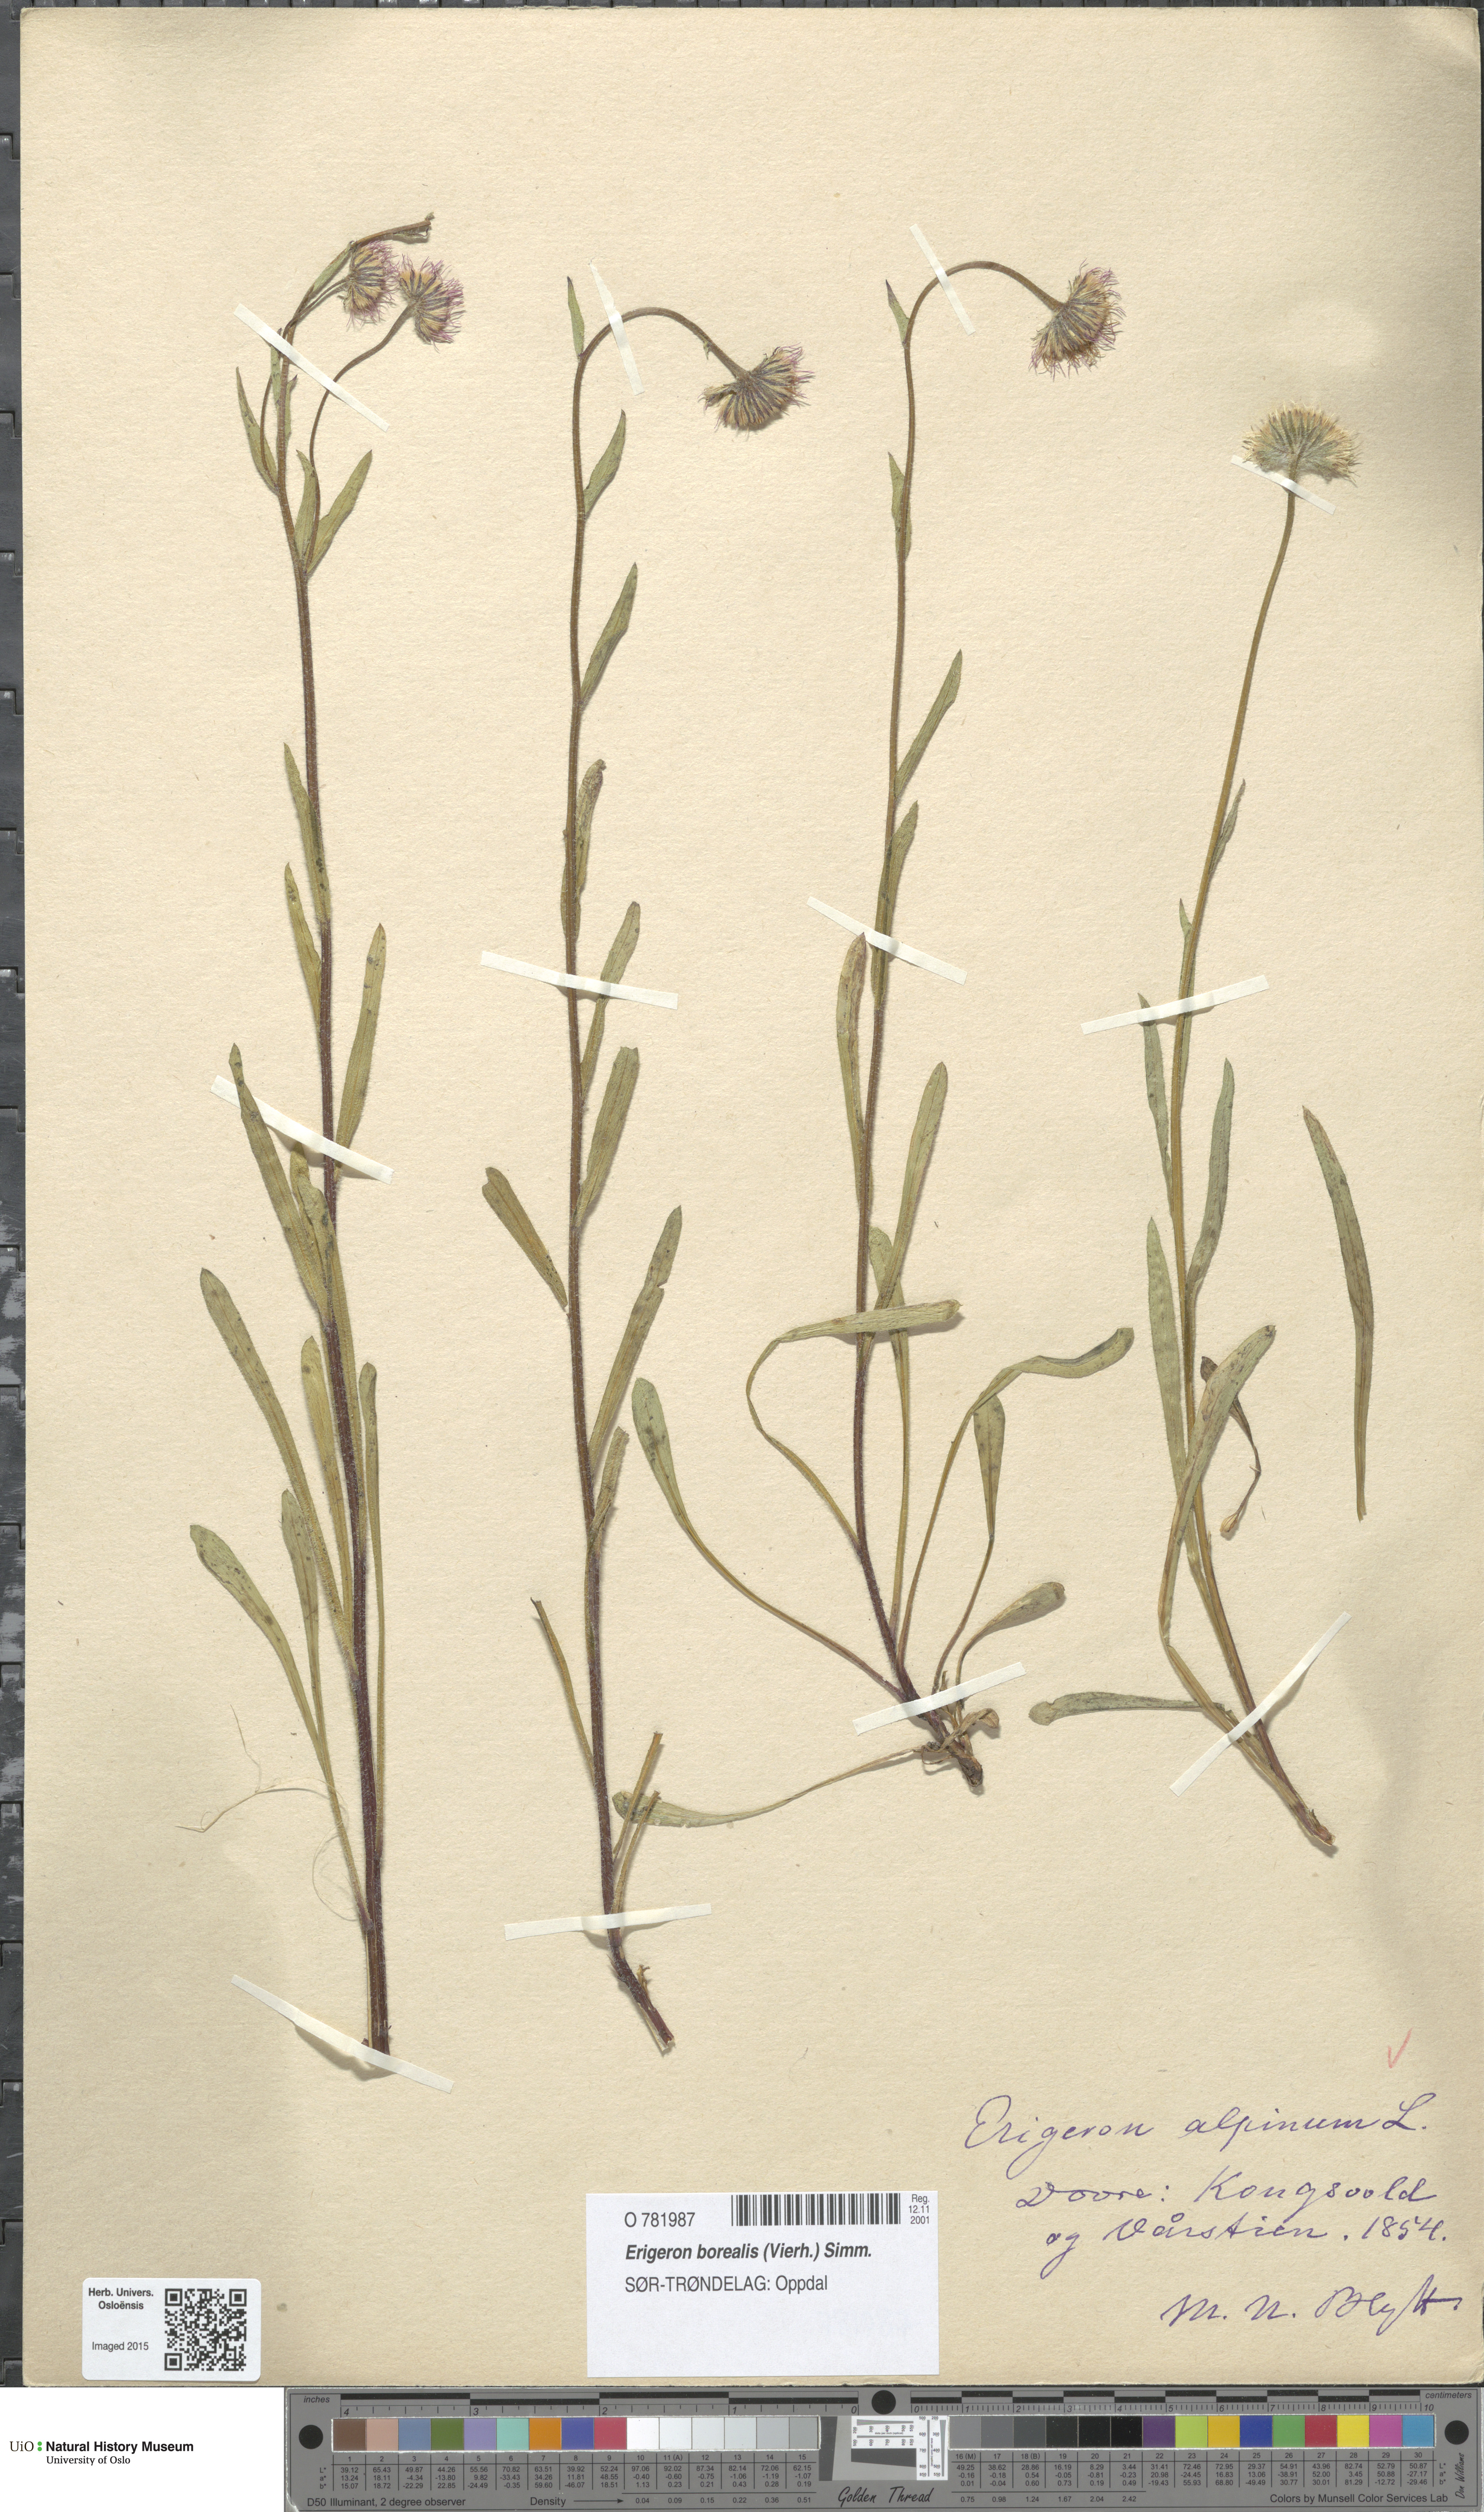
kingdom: Plantae
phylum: Tracheophyta
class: Magnoliopsida
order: Asterales
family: Asteraceae
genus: Erigeron
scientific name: Erigeron borealis
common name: Alpine fleabane
